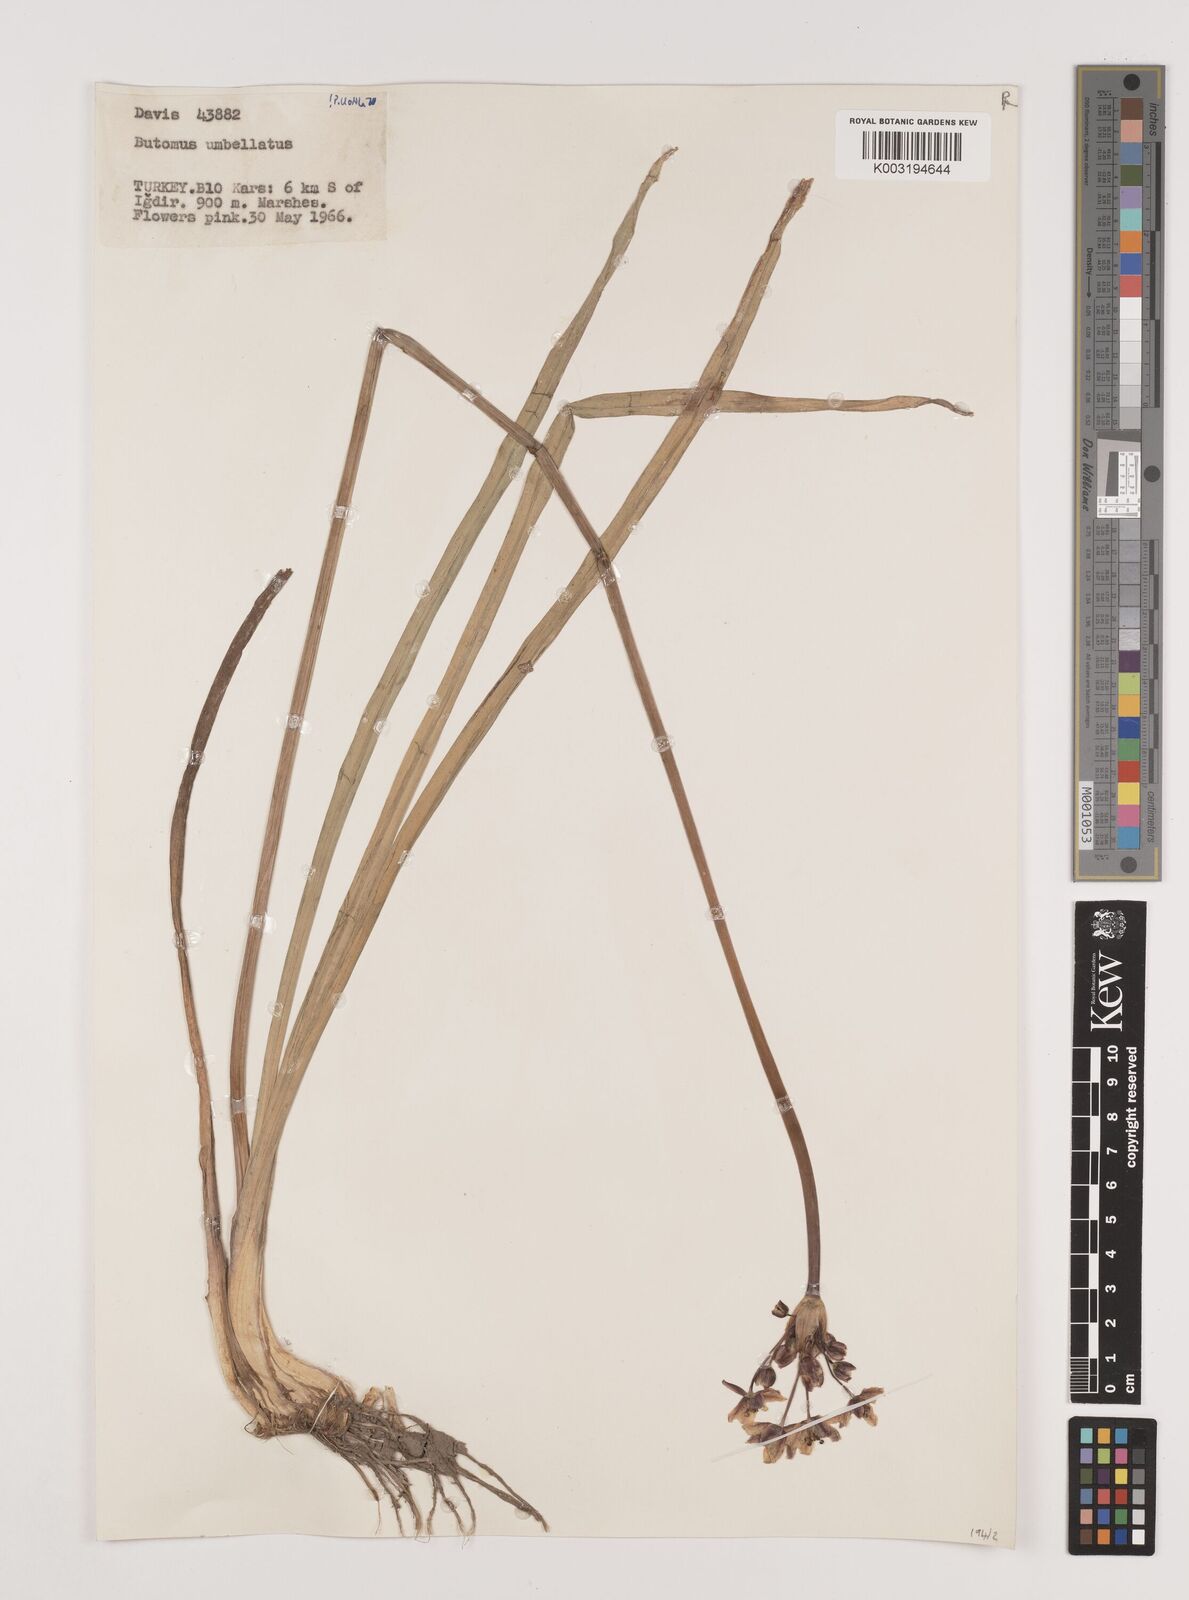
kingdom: Plantae
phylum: Tracheophyta
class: Liliopsida
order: Alismatales
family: Butomaceae
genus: Butomus
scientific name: Butomus umbellatus
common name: Flowering-rush
